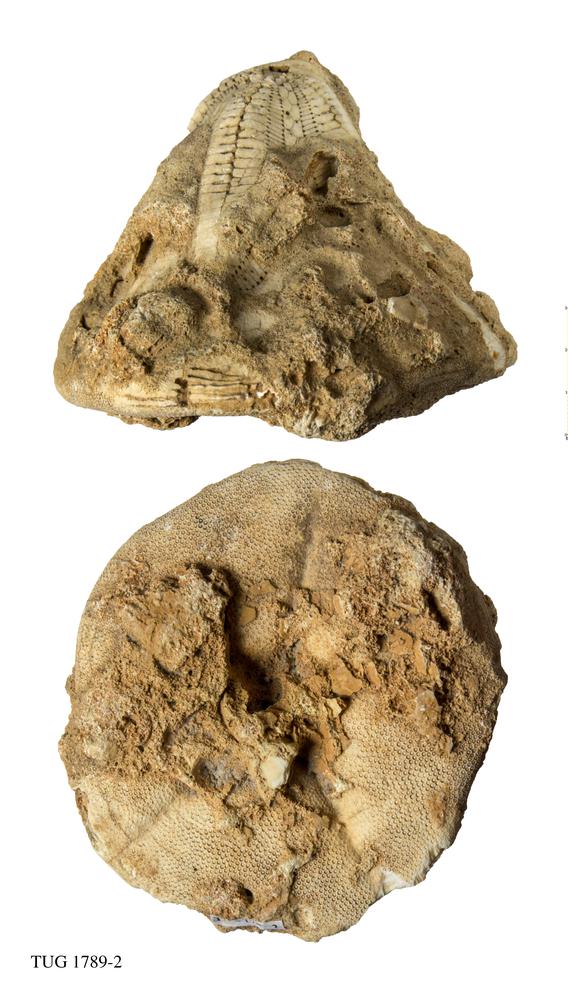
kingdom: Animalia
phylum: Echinodermata
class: Echinoidea
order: Clypeasteroida
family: Clypeasteridae
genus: Clypeaster
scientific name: Clypeaster
